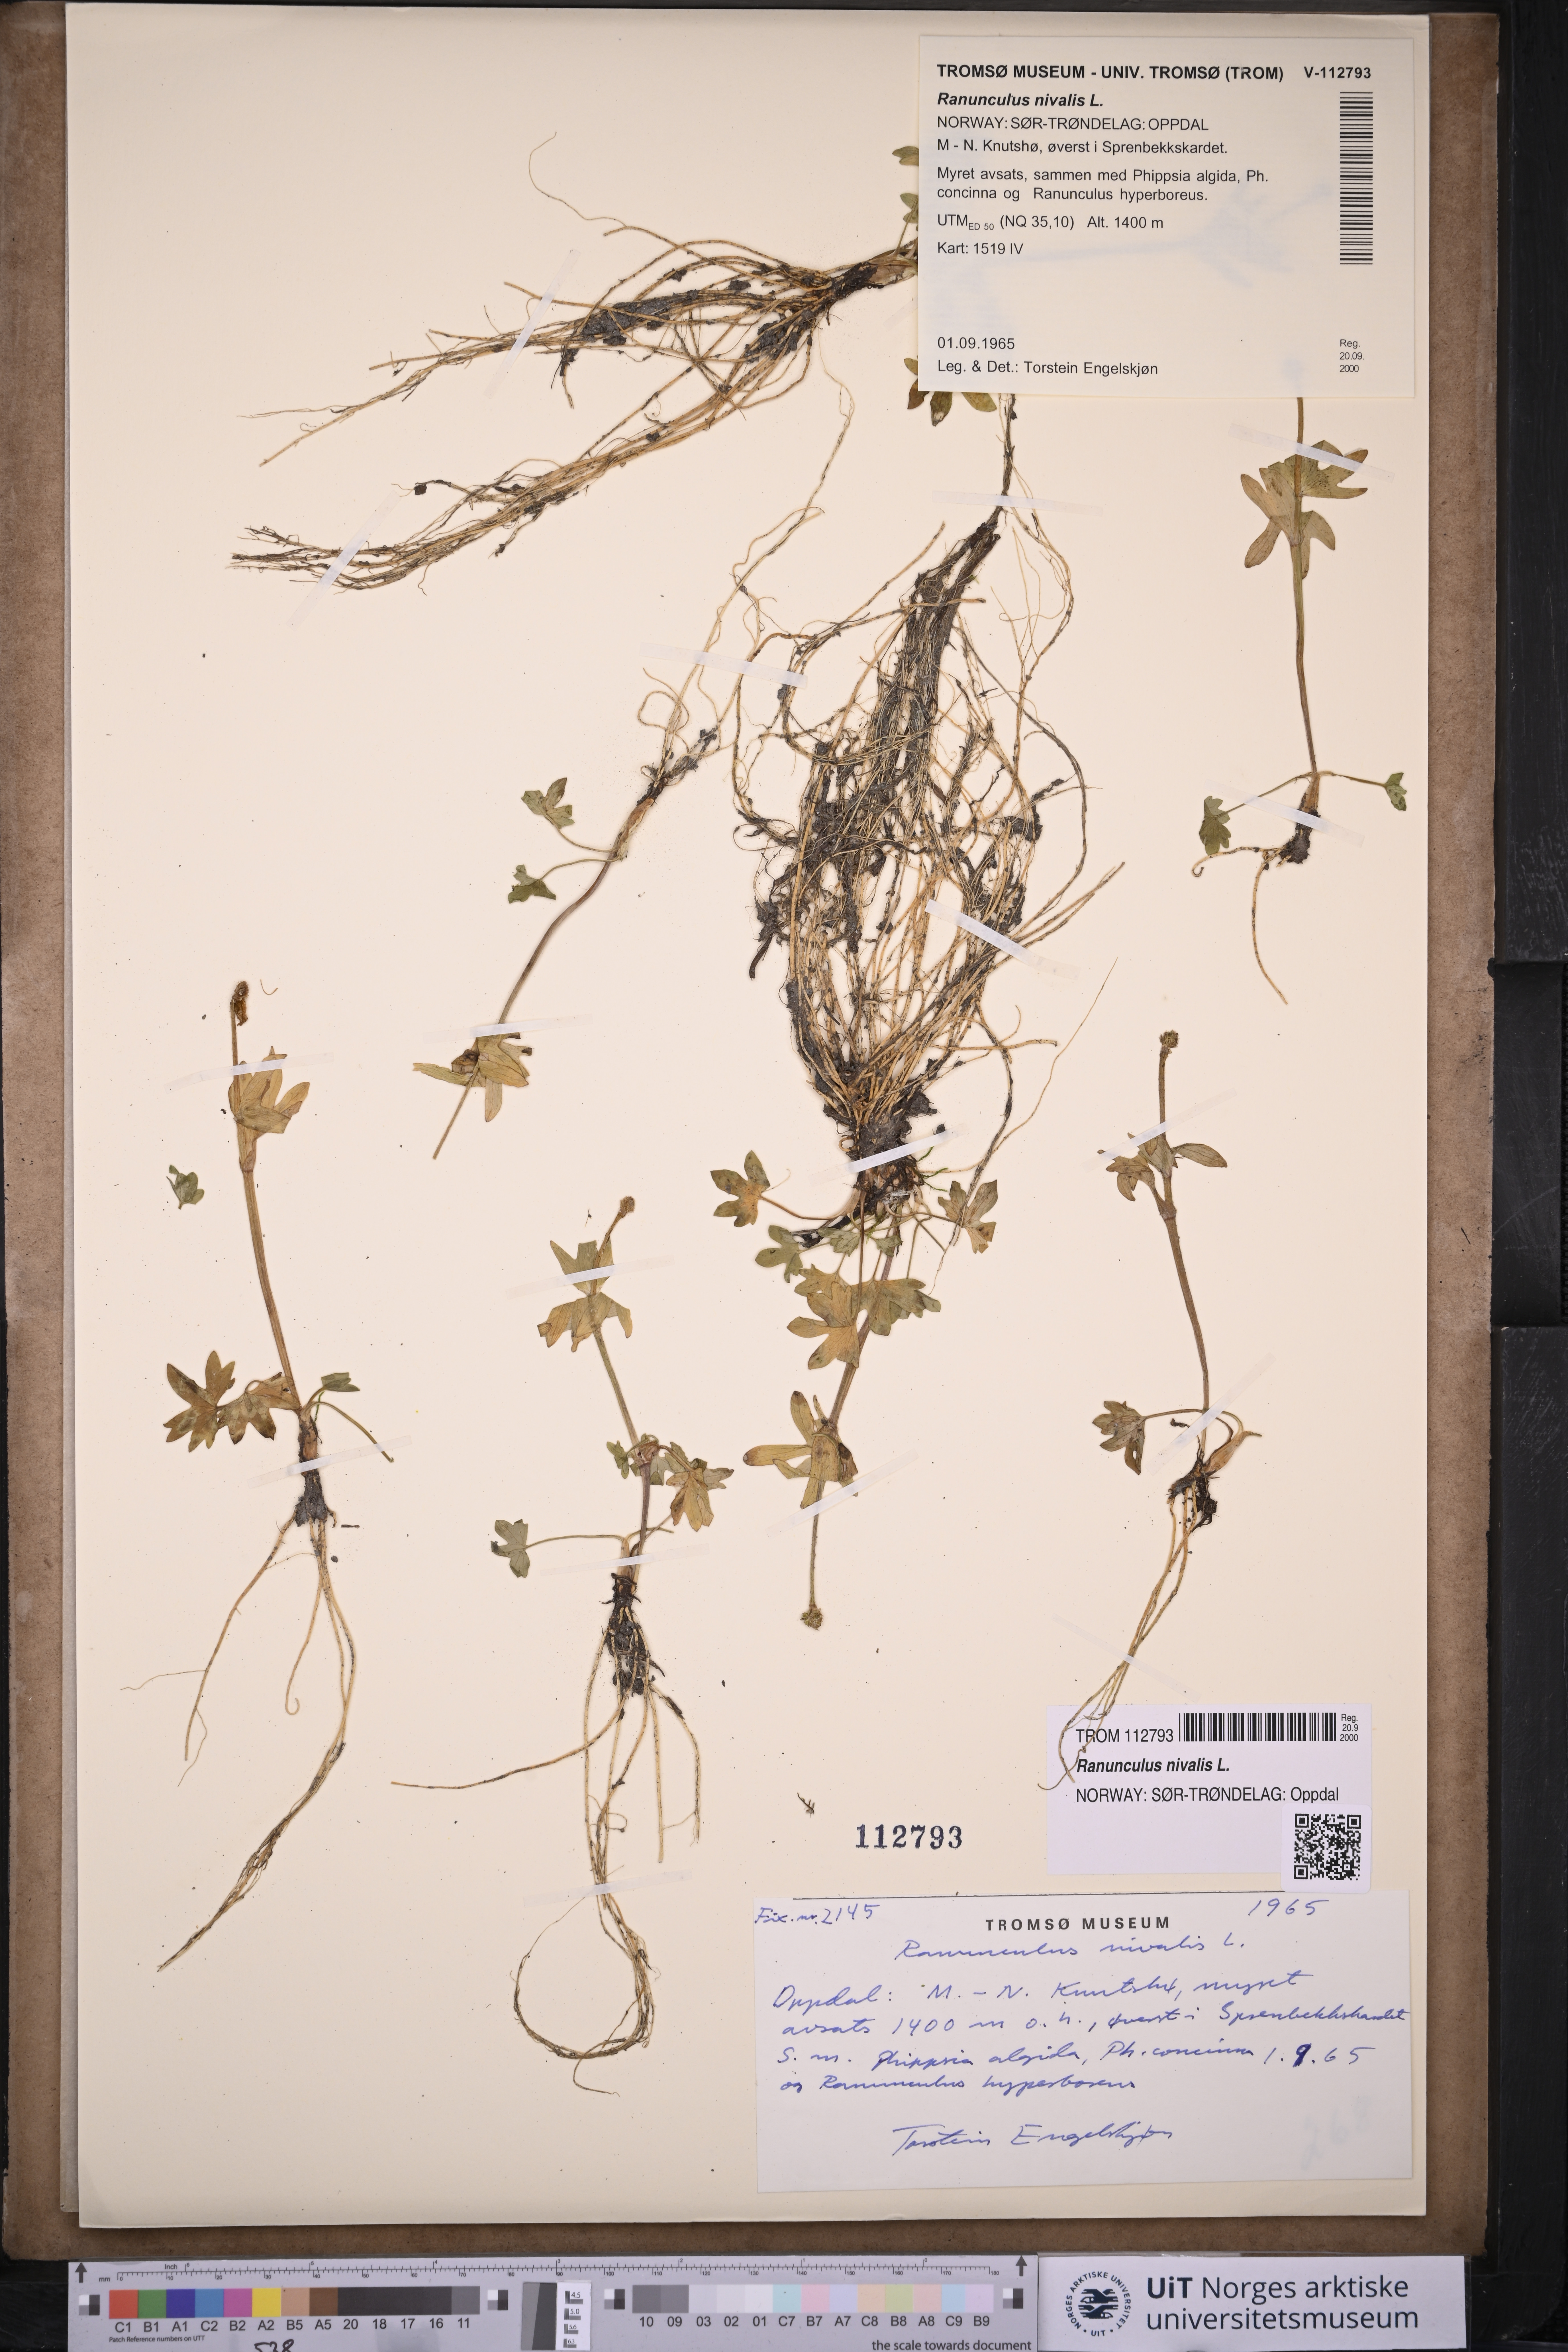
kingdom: Plantae
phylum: Tracheophyta
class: Magnoliopsida
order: Ranunculales
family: Ranunculaceae
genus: Ranunculus
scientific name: Ranunculus nivalis
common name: Snow buttercup
